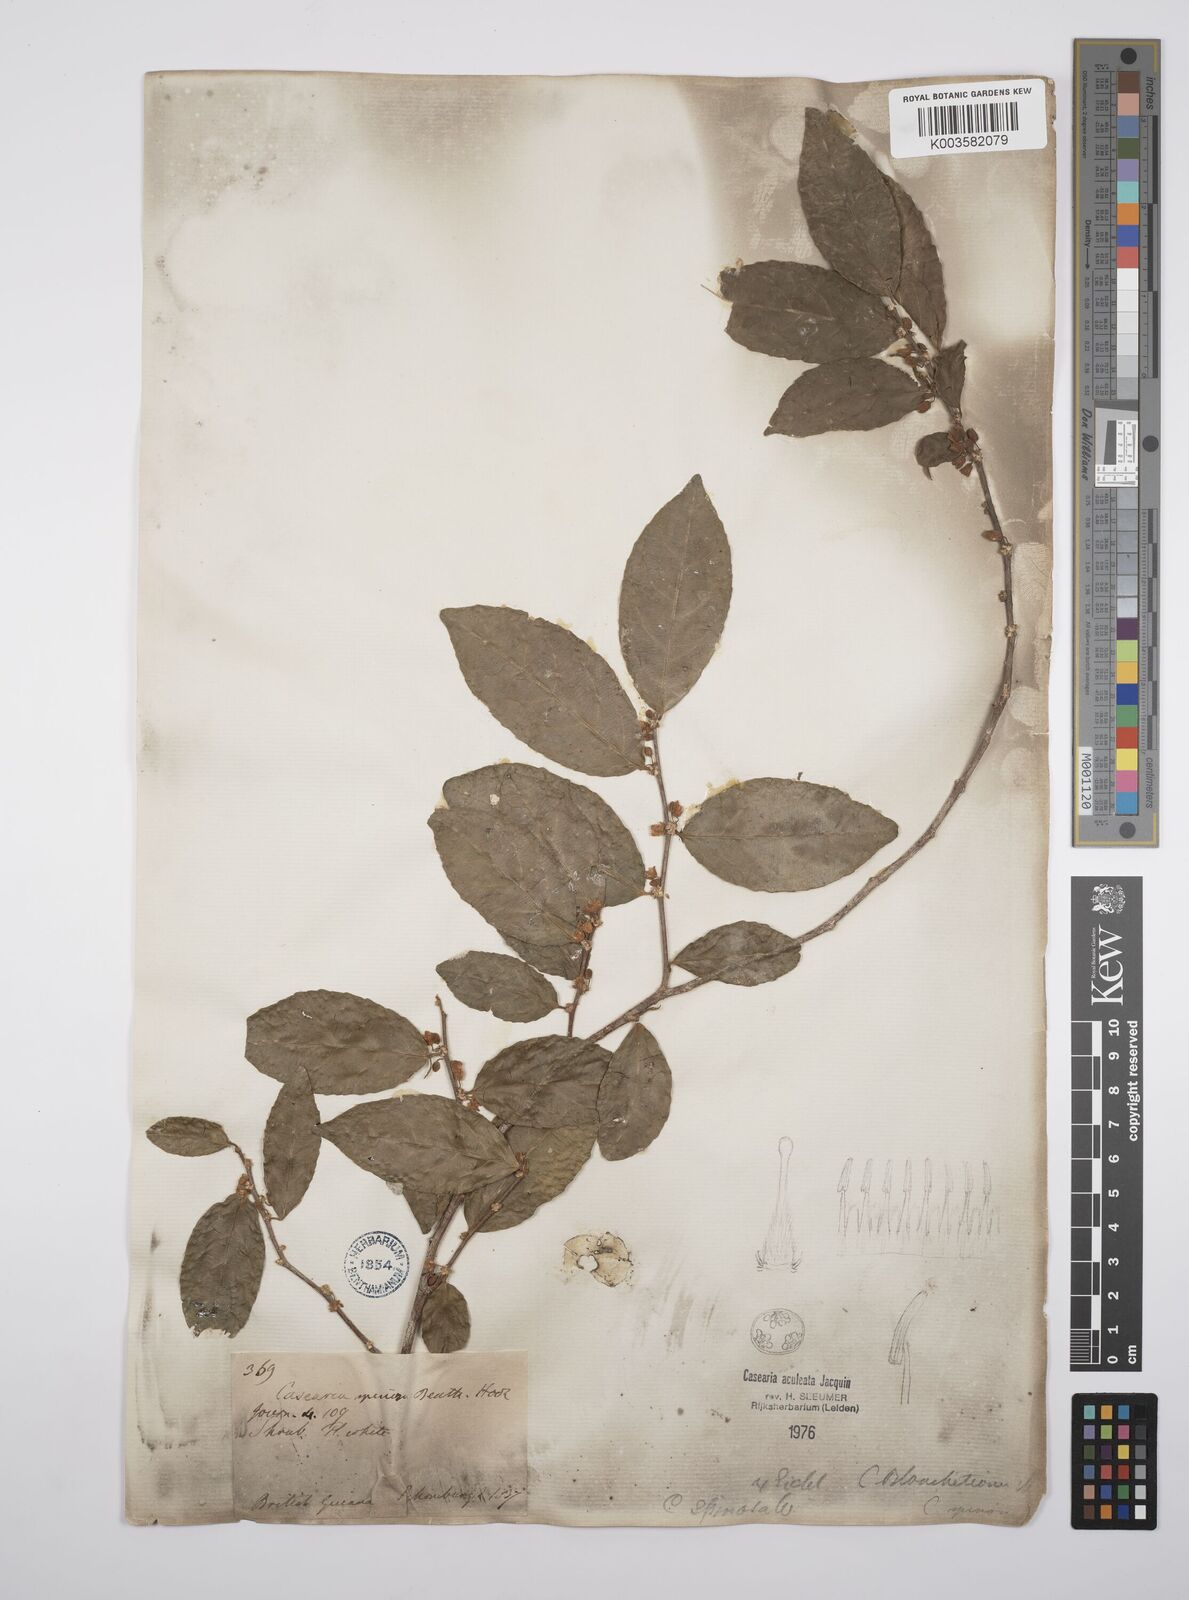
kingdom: Plantae
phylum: Tracheophyta
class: Magnoliopsida
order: Malpighiales
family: Salicaceae
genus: Casearia
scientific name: Casearia aculeata
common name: Cockspur
